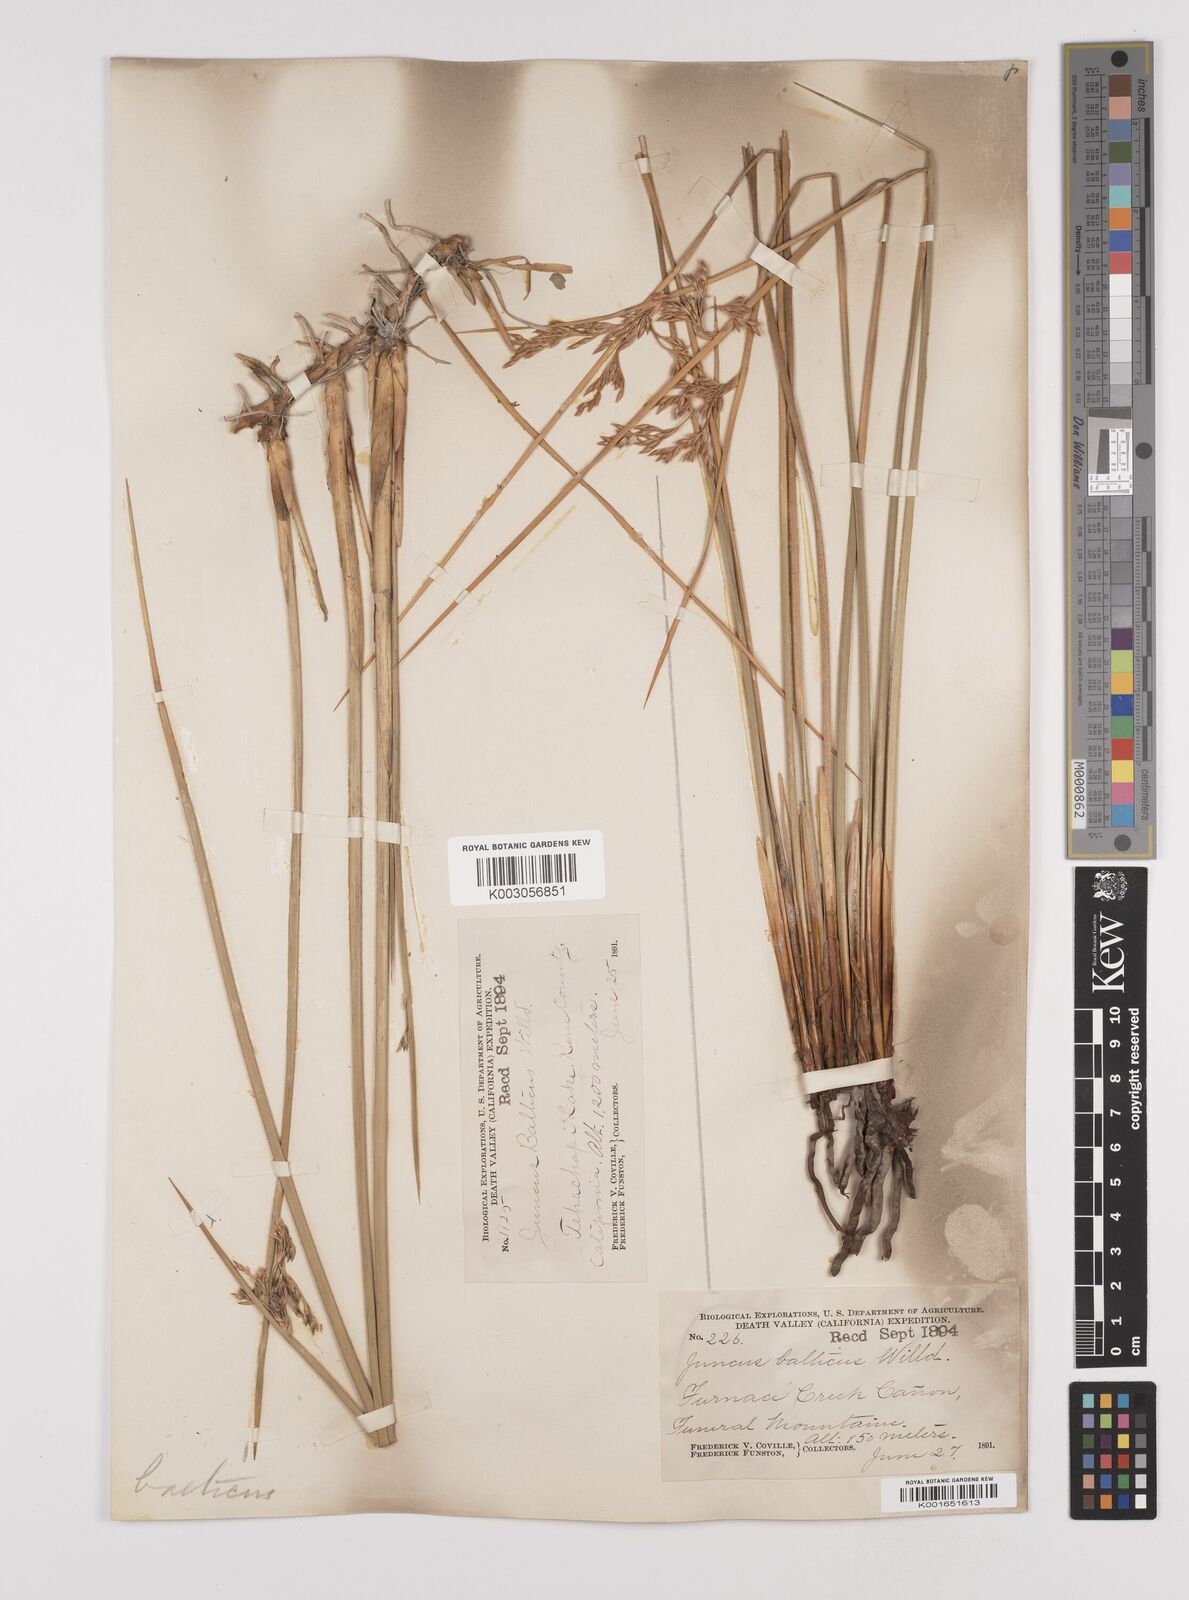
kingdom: Plantae
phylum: Tracheophyta
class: Liliopsida
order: Poales
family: Juncaceae
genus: Juncus
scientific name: Juncus balticus
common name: Baltic rush
